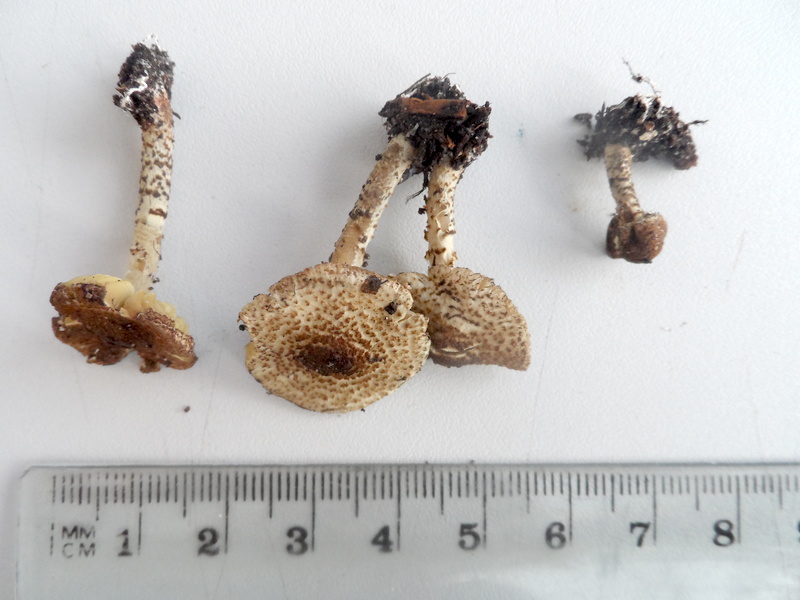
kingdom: Fungi
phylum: Basidiomycota
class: Agaricomycetes
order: Agaricales
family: Agaricaceae
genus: Lepiota
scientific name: Lepiota elaiophylla
